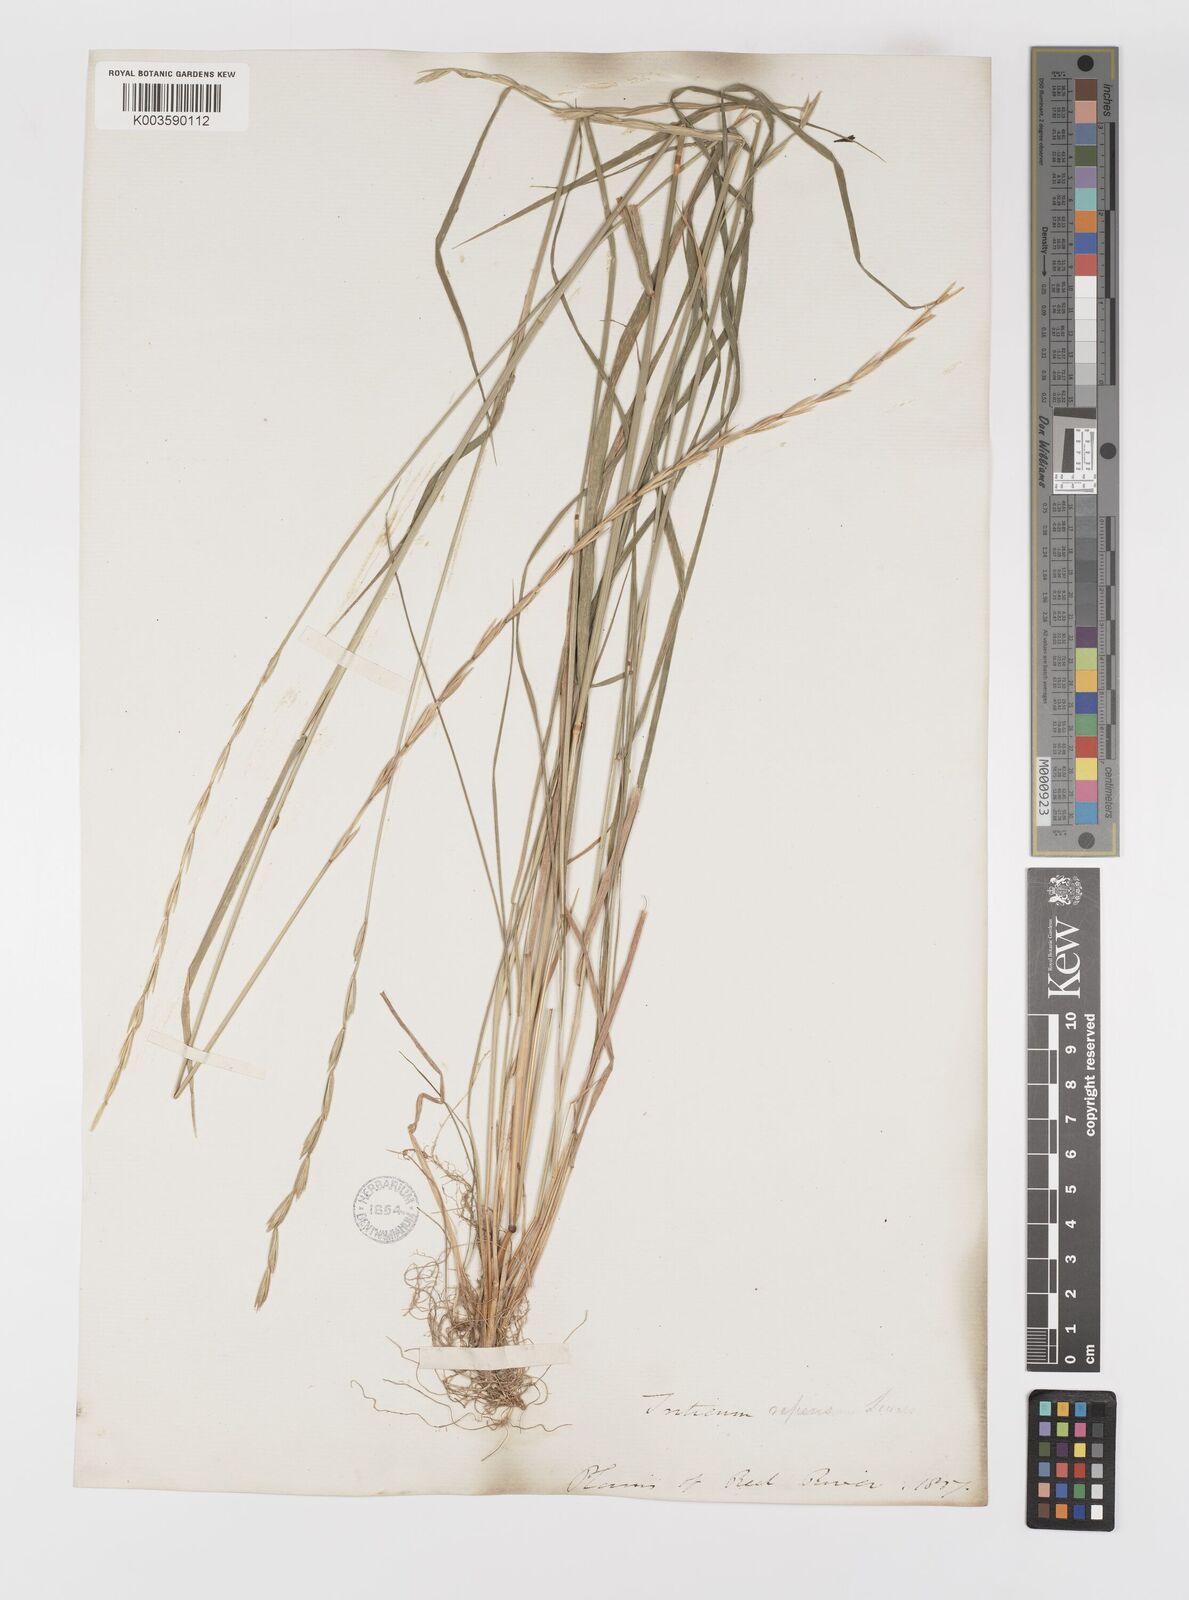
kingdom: Plantae
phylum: Tracheophyta
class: Liliopsida
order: Poales
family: Poaceae
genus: Elymus
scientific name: Elymus repens
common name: Quackgrass
